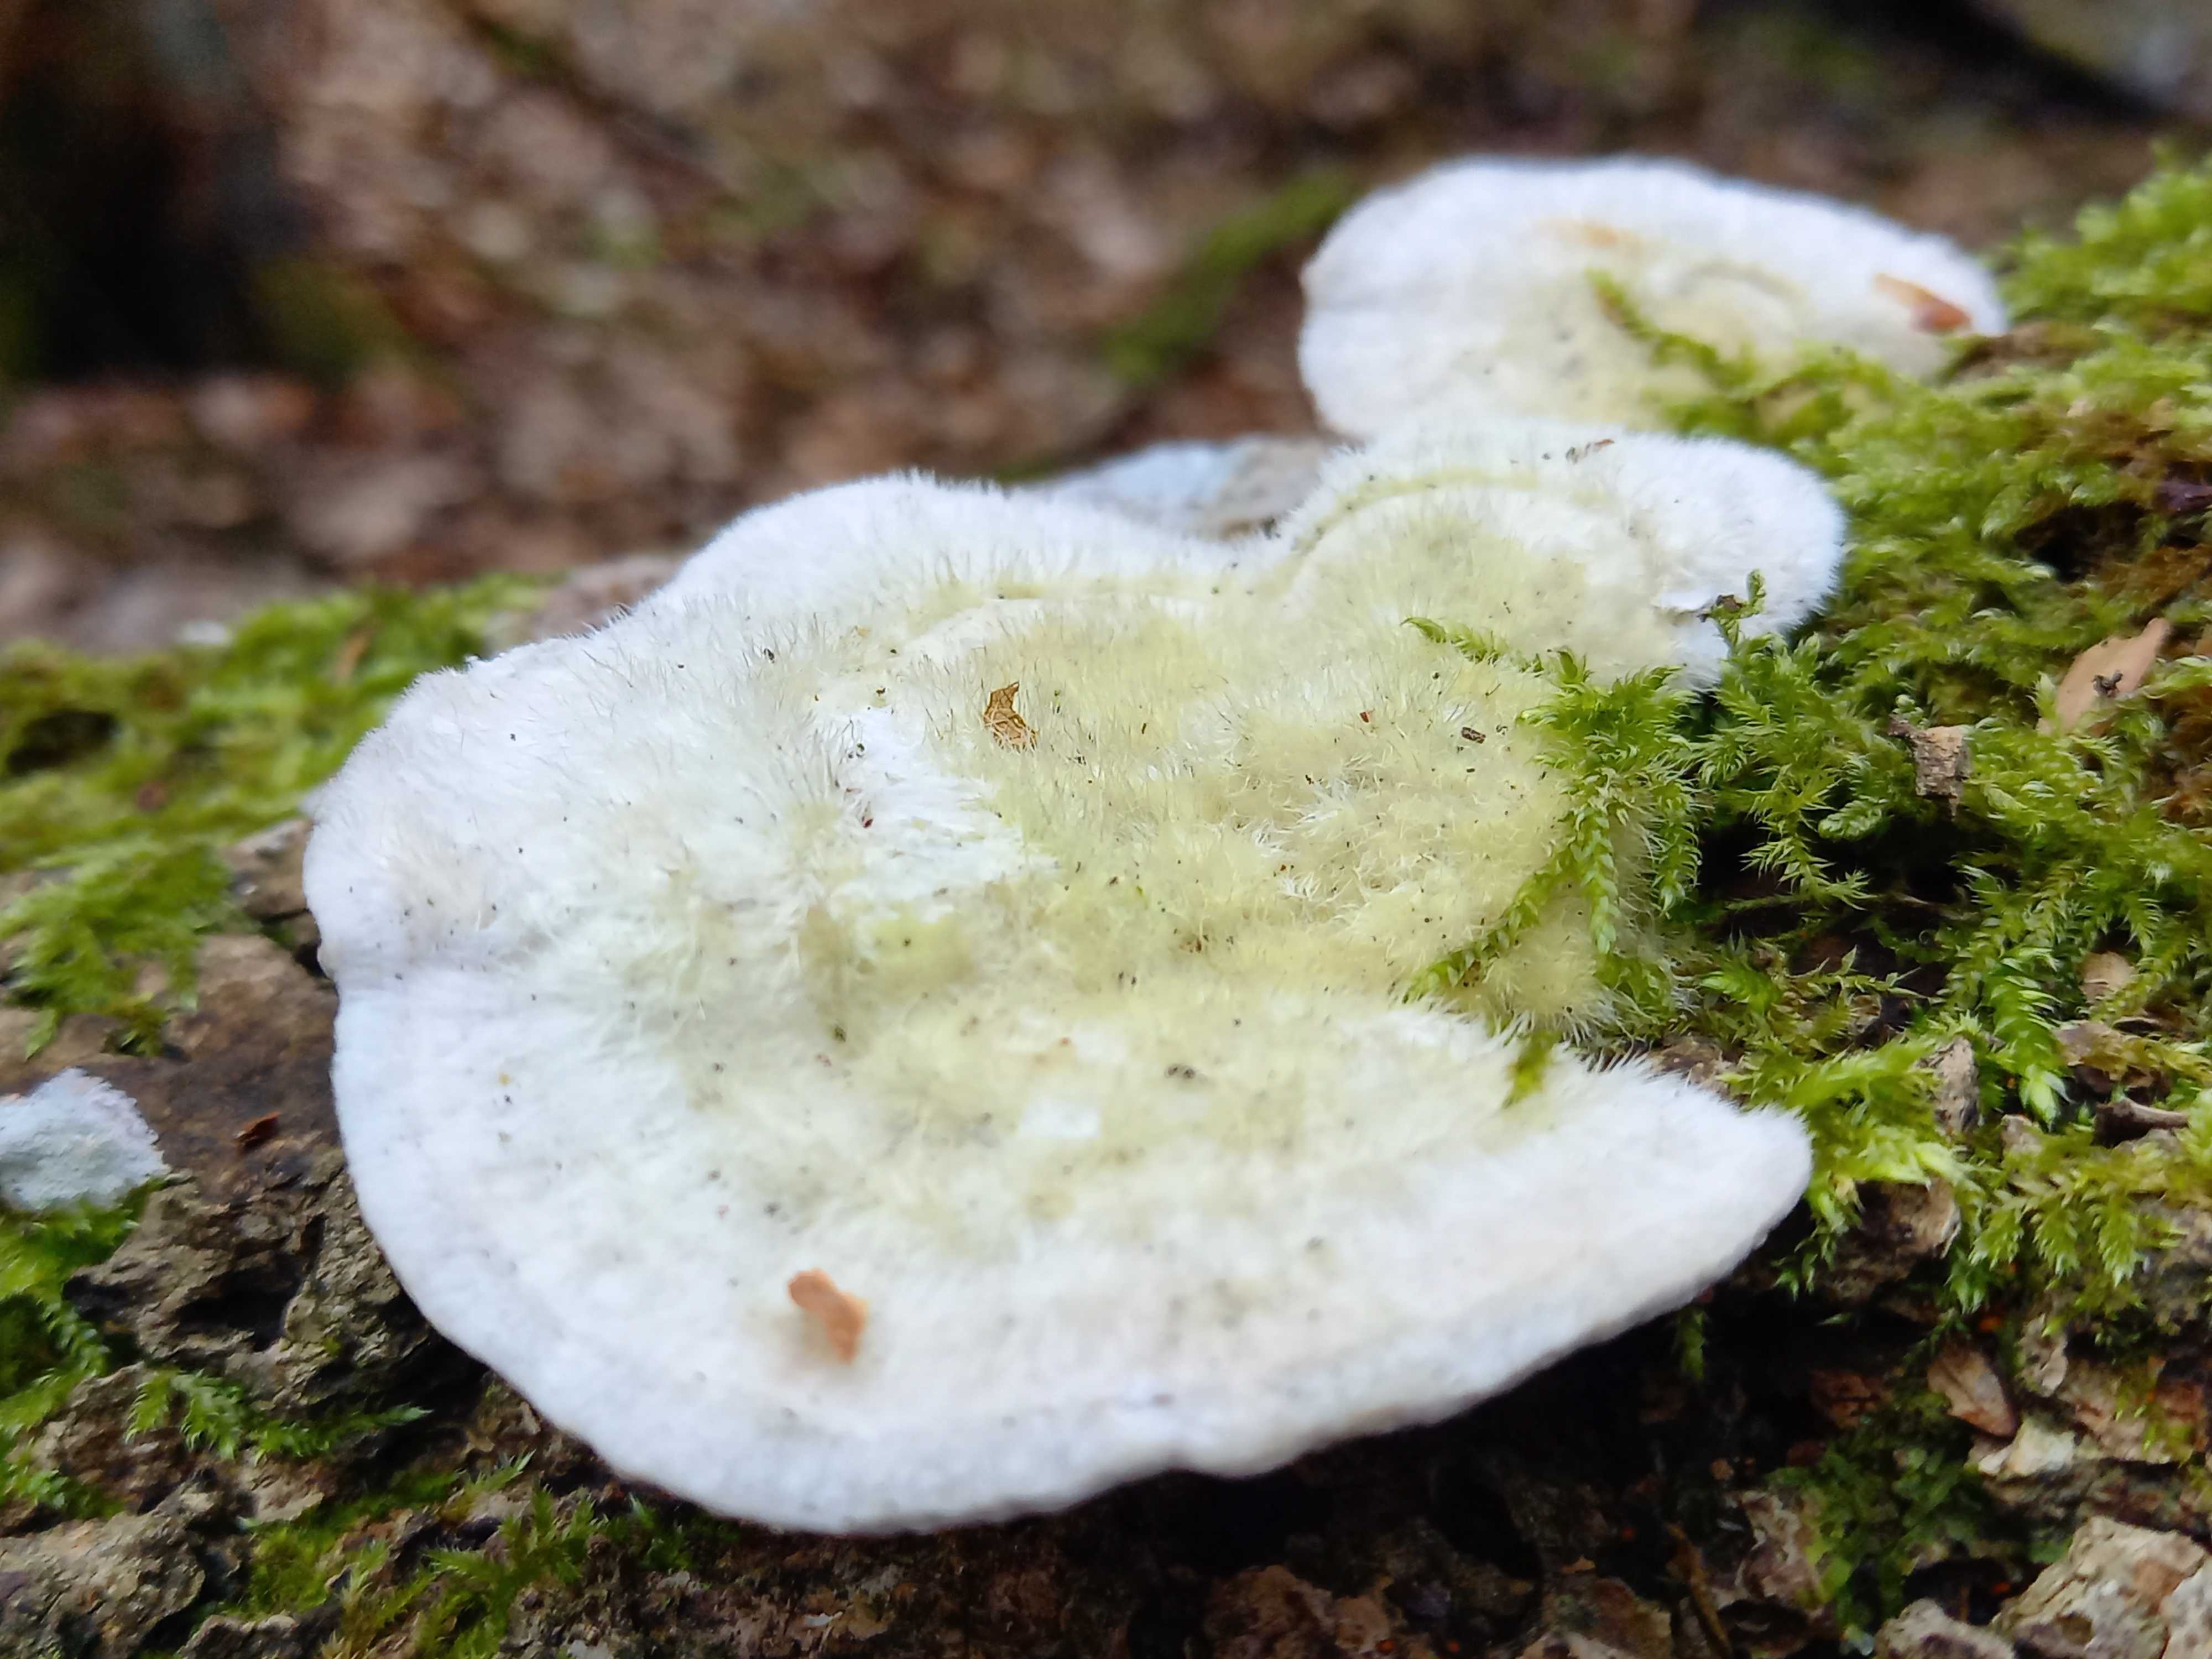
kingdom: Fungi
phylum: Basidiomycota
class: Agaricomycetes
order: Polyporales
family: Polyporaceae
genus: Trametes
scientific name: Trametes hirsuta
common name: håret læderporesvamp
